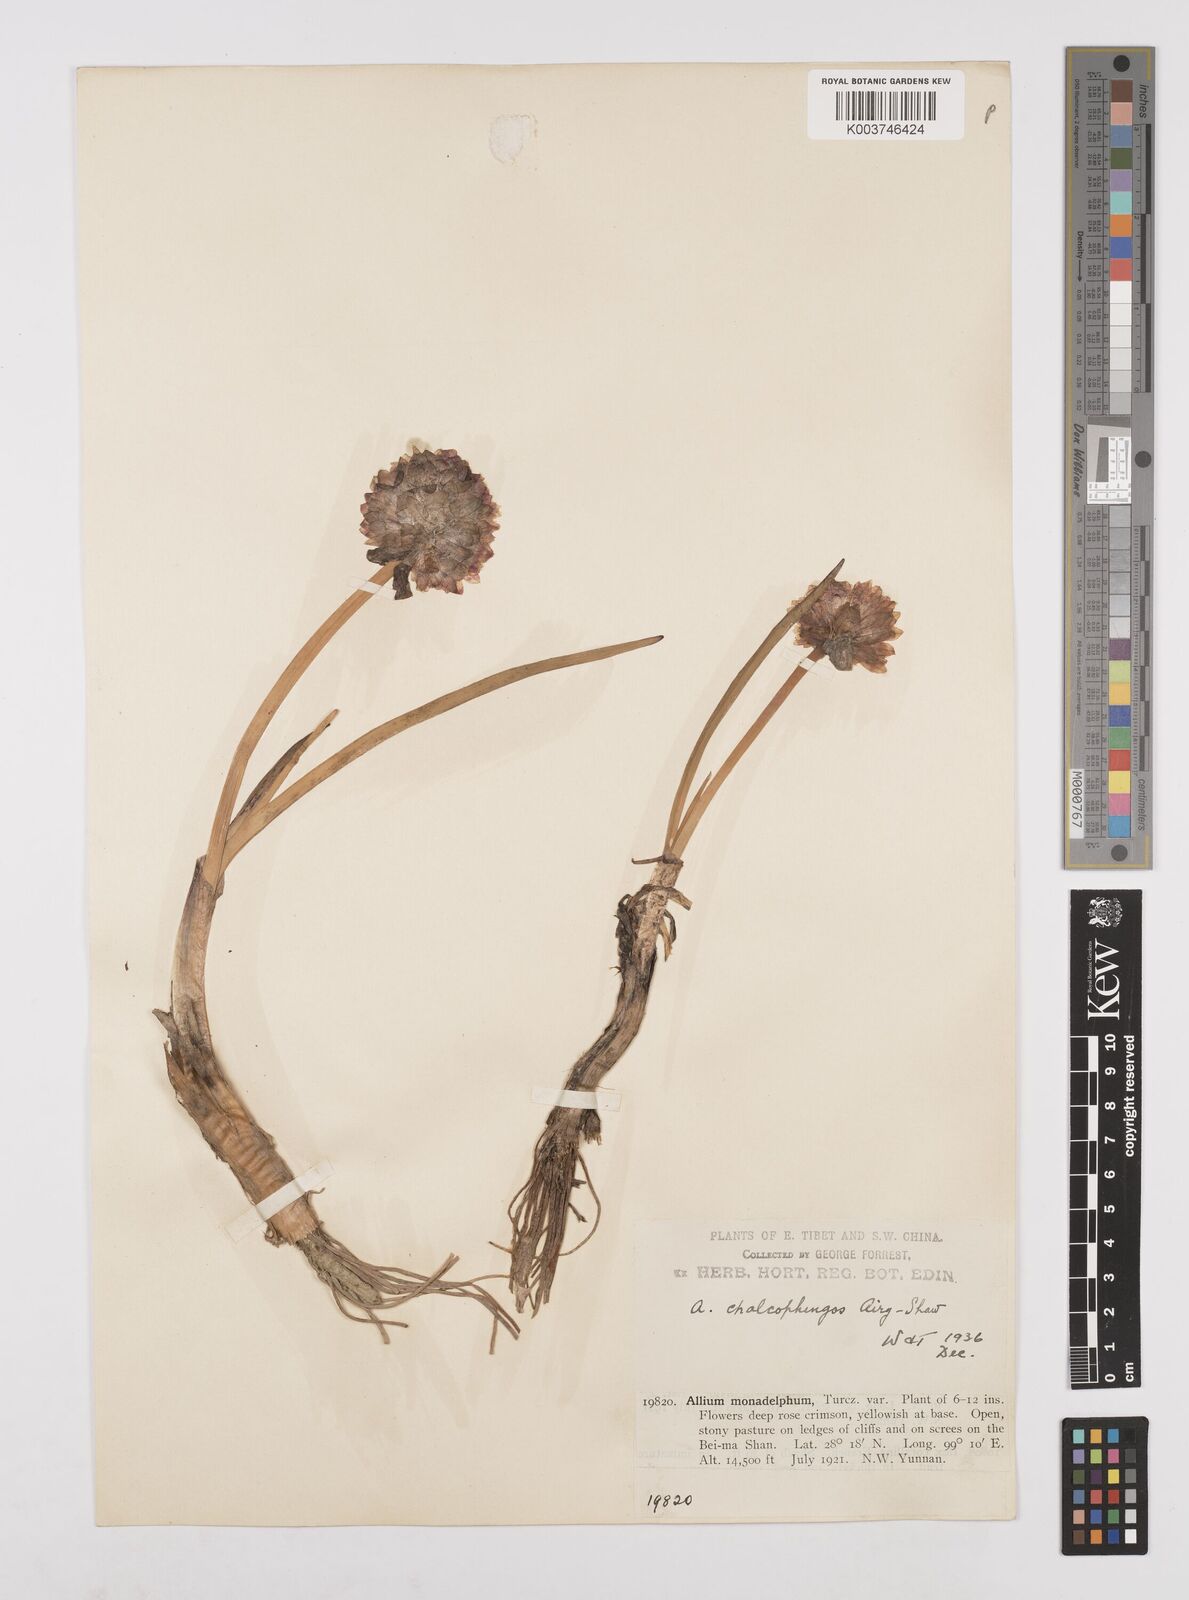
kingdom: Plantae
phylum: Tracheophyta
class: Liliopsida
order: Asparagales
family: Amaryllidaceae
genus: Allium
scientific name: Allium atrosanguineum
